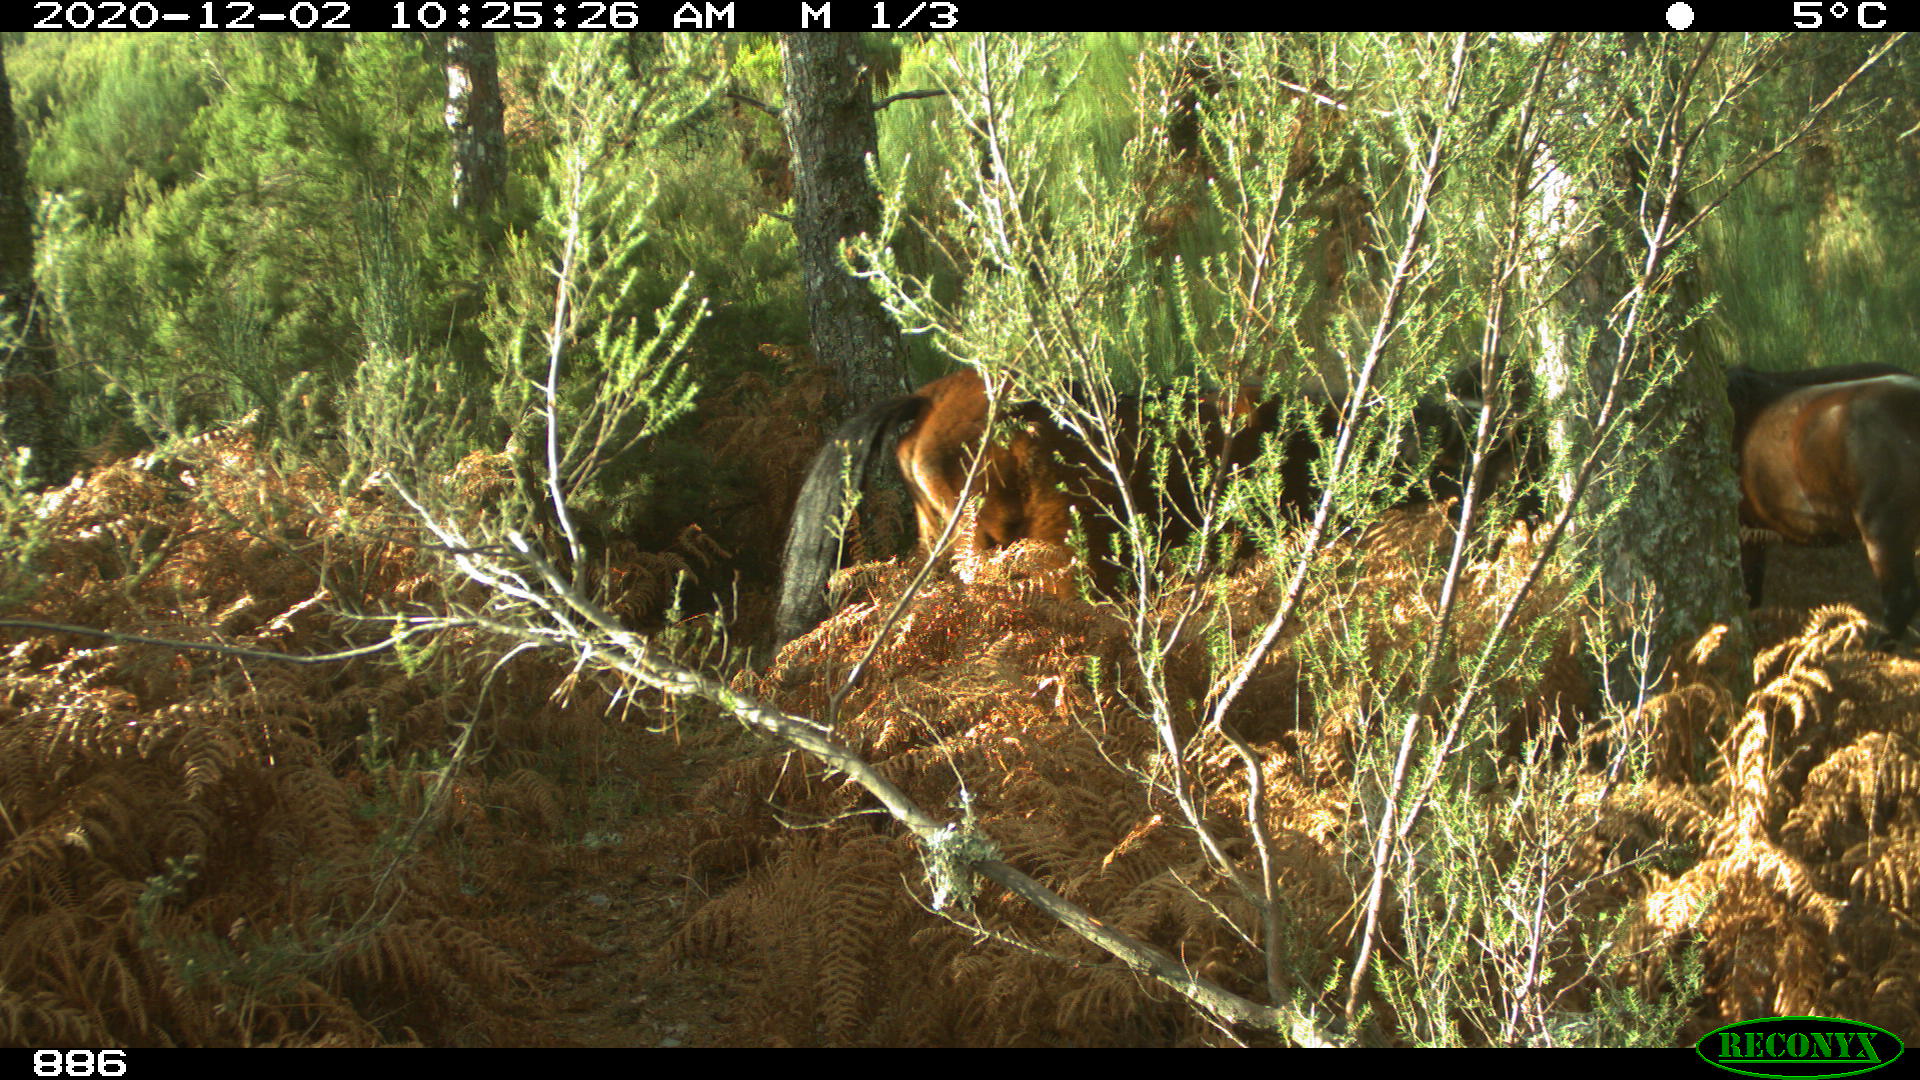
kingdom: Animalia
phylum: Chordata
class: Mammalia
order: Perissodactyla
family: Equidae
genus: Equus
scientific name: Equus caballus
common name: Horse
